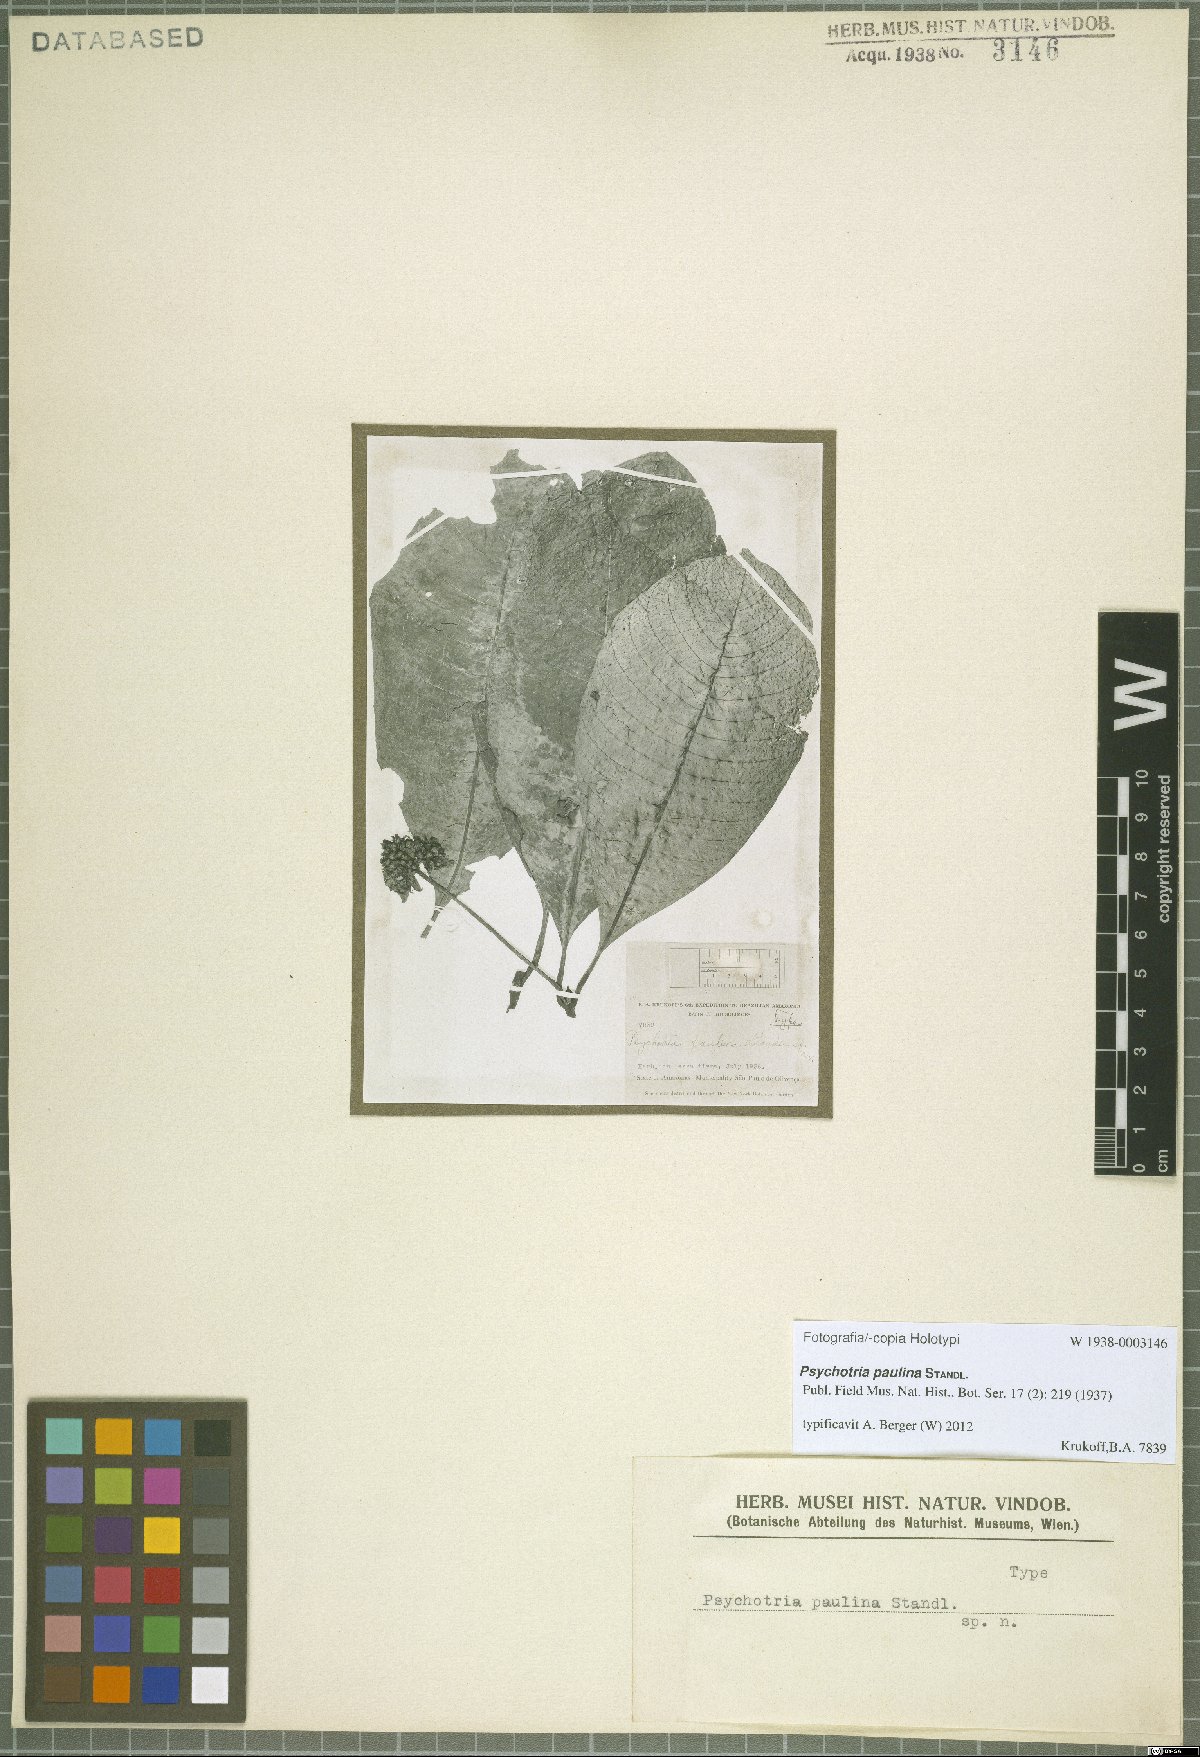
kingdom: Plantae
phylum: Tracheophyta
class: Magnoliopsida
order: Gentianales
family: Rubiaceae
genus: Palicourea
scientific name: Palicourea paulina
